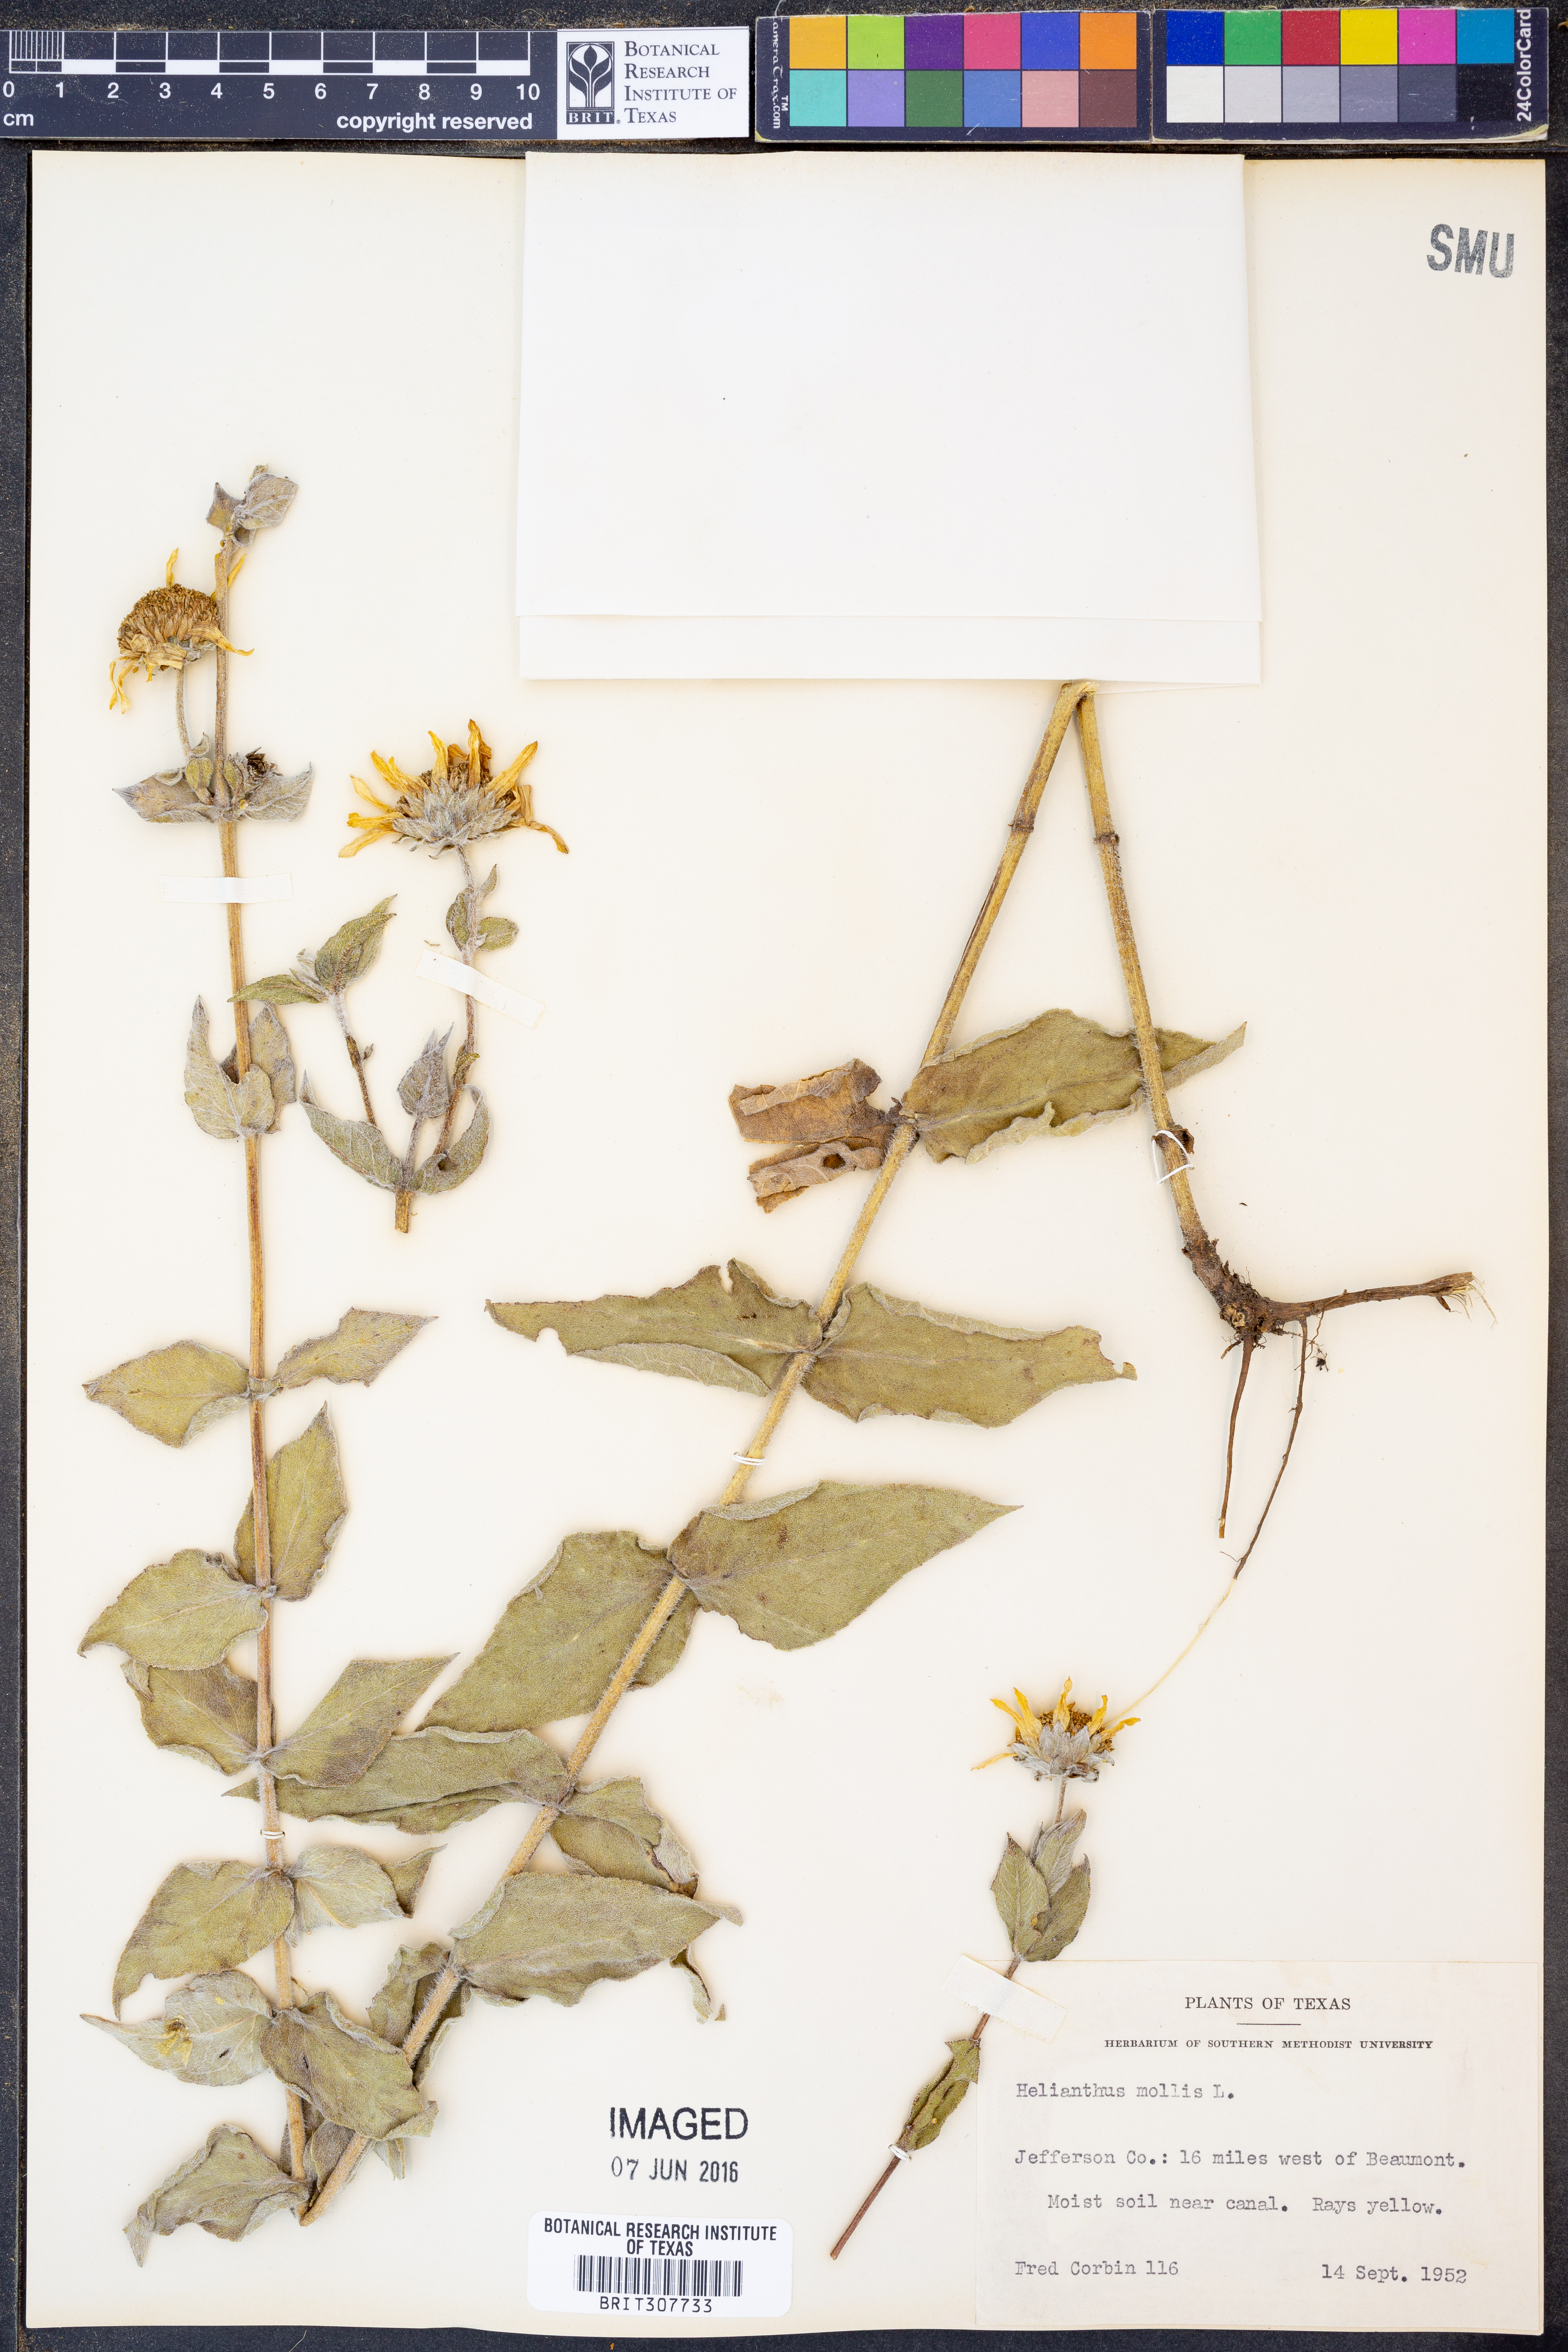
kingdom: Plantae
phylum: Tracheophyta
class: Magnoliopsida
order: Asterales
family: Asteraceae
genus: Helianthus
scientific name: Helianthus mollis
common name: Ashy sunflower
